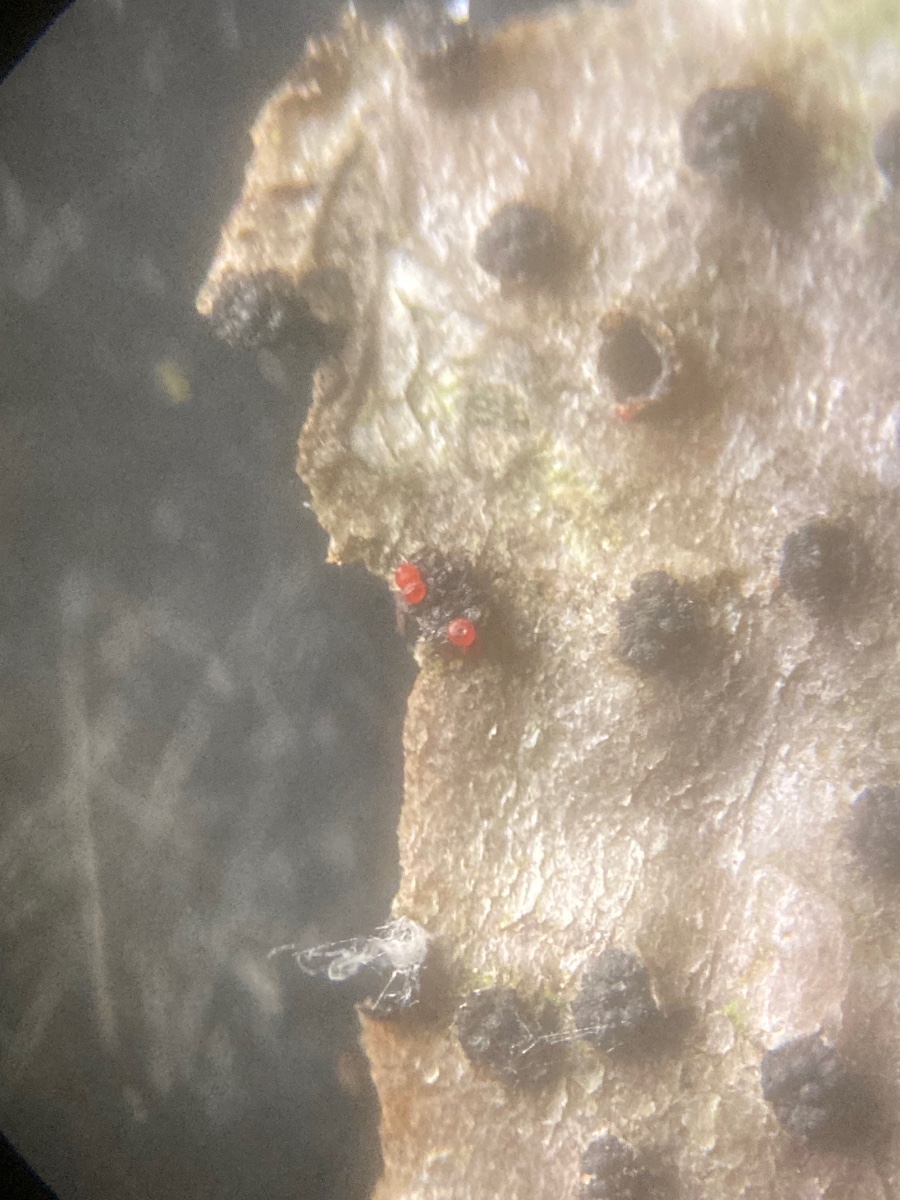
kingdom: Fungi
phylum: Ascomycota
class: Sordariomycetes
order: Hypocreales
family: Nectriaceae
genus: Dialonectria
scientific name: Dialonectria quaternatae
